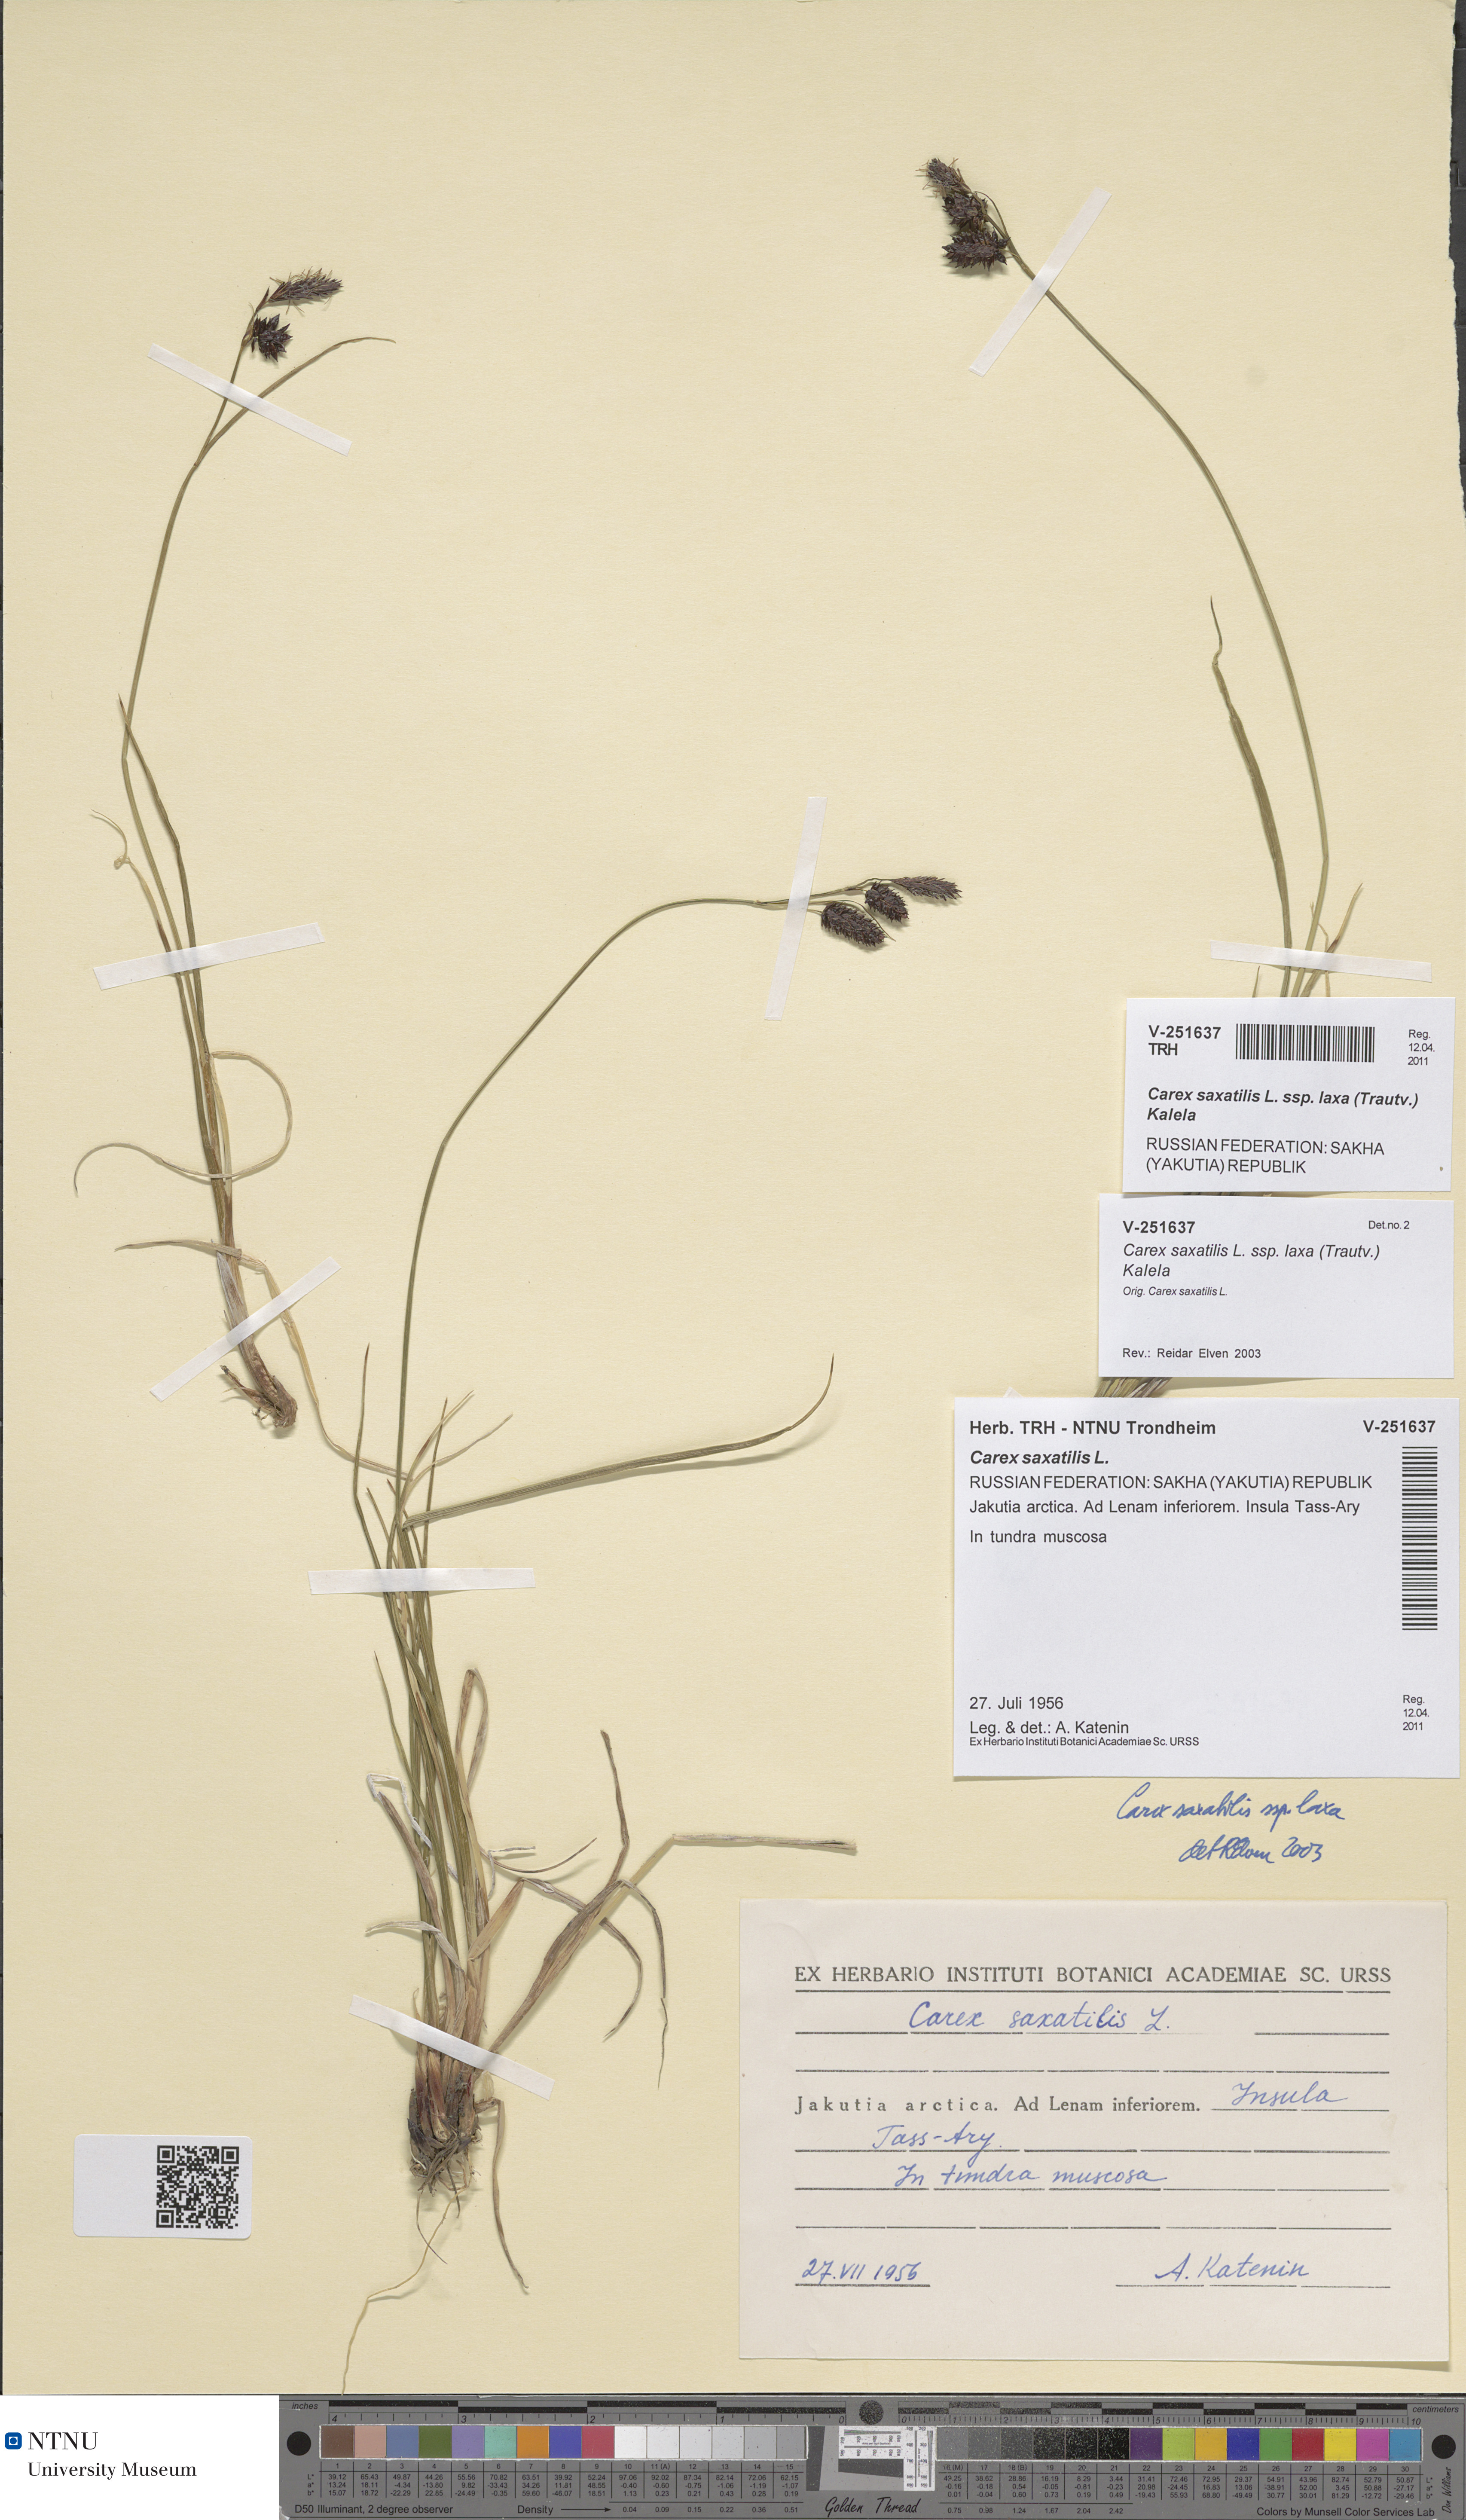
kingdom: Plantae
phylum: Tracheophyta
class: Liliopsida
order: Poales
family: Cyperaceae
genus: Carex
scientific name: Carex saxatilis
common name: Russet sedge
